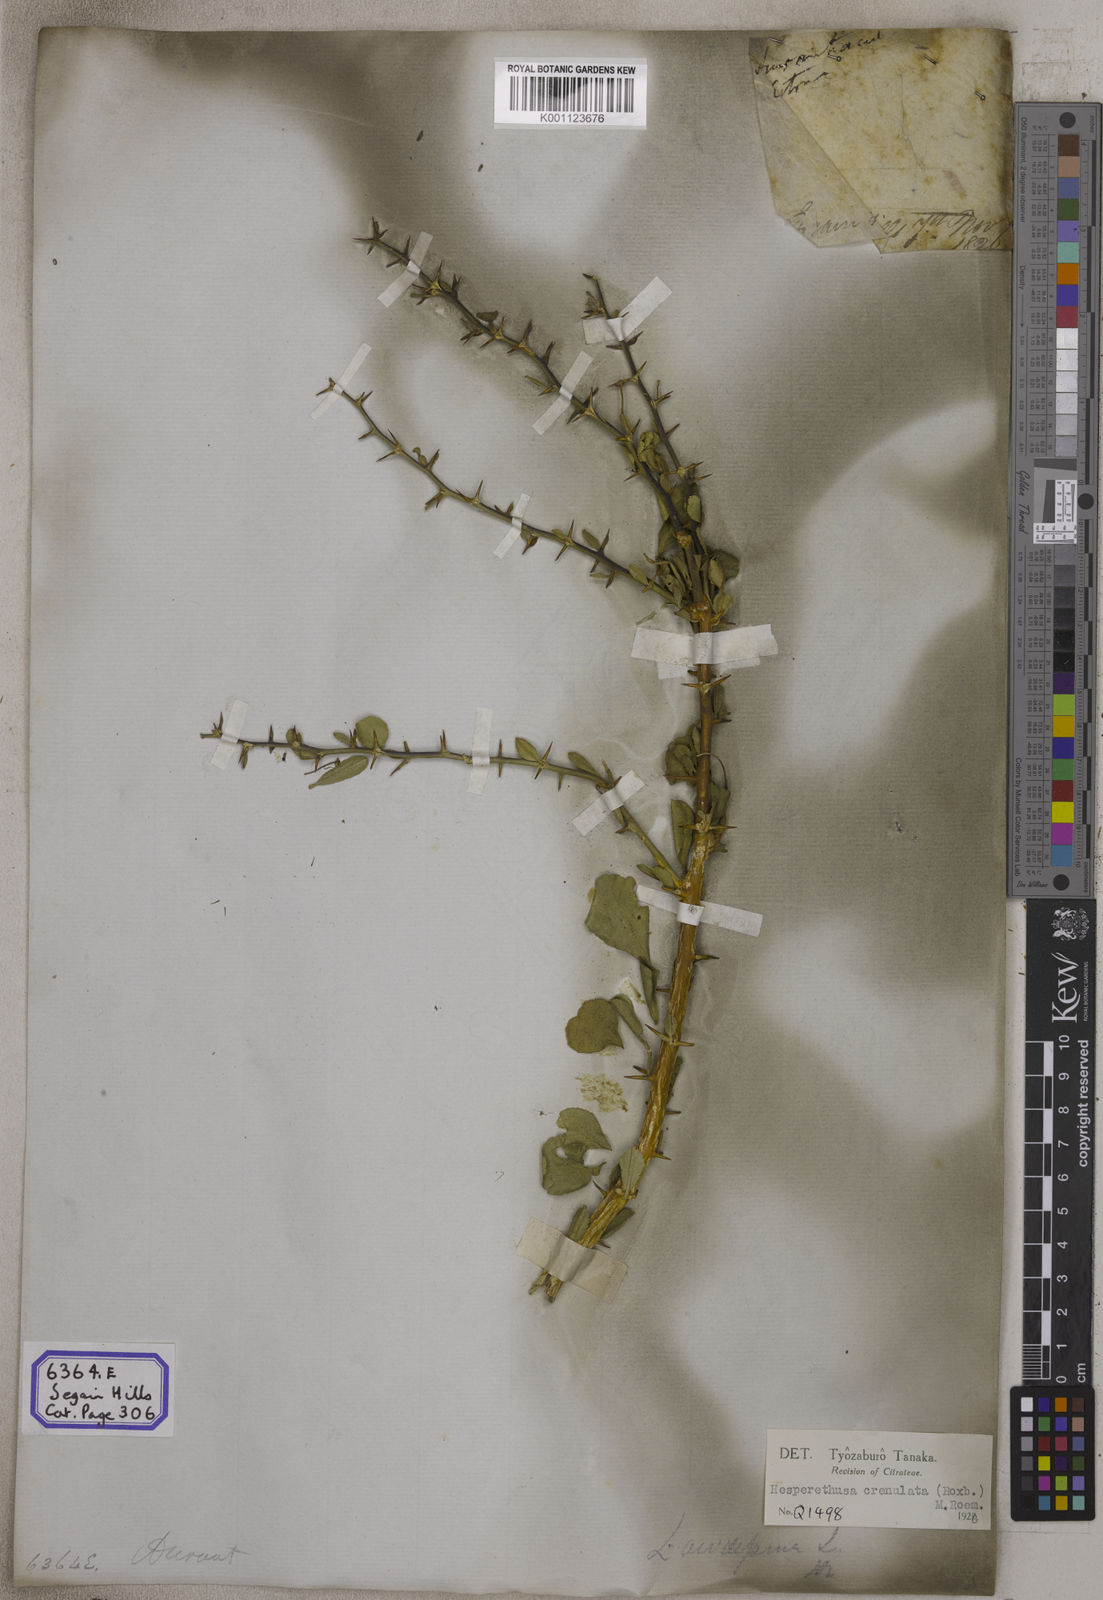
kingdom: Plantae
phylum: Tracheophyta
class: Magnoliopsida
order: Sapindales
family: Rutaceae
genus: Naringi
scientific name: Naringi crenulata
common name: Hesperethusa
